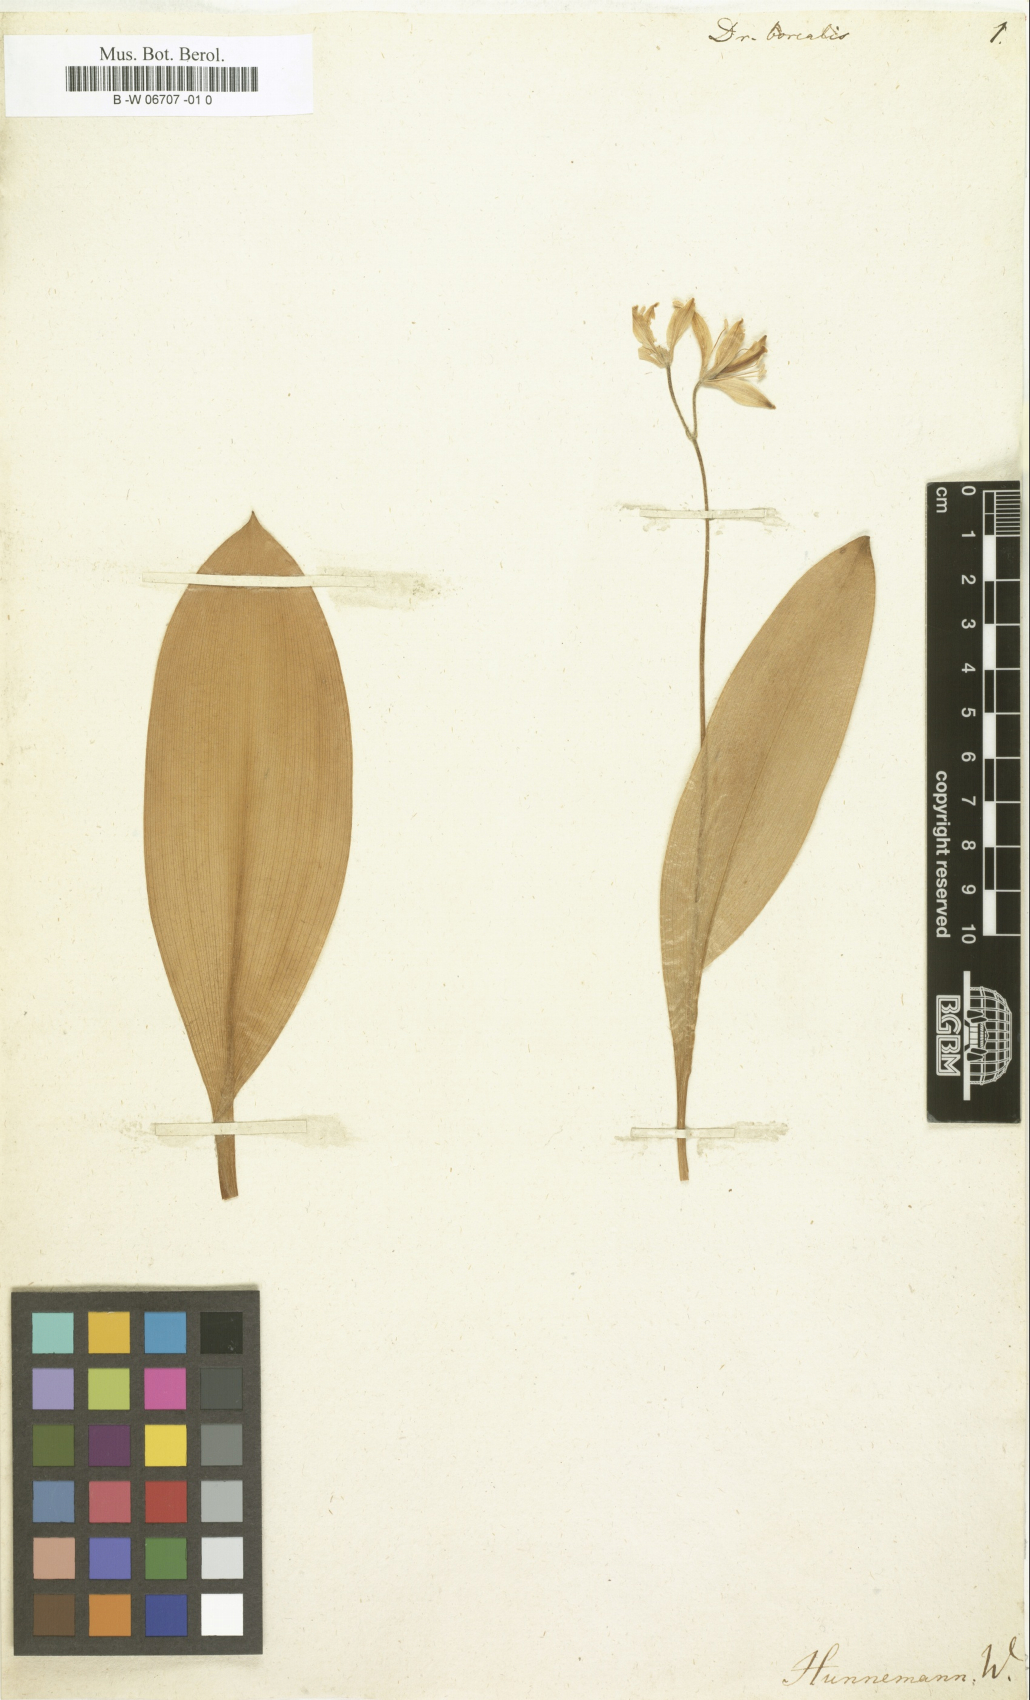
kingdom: Plantae
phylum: Tracheophyta
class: Liliopsida
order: Liliales
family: Liliaceae
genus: Clintonia
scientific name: Clintonia borealis
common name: Yellow clintonia
